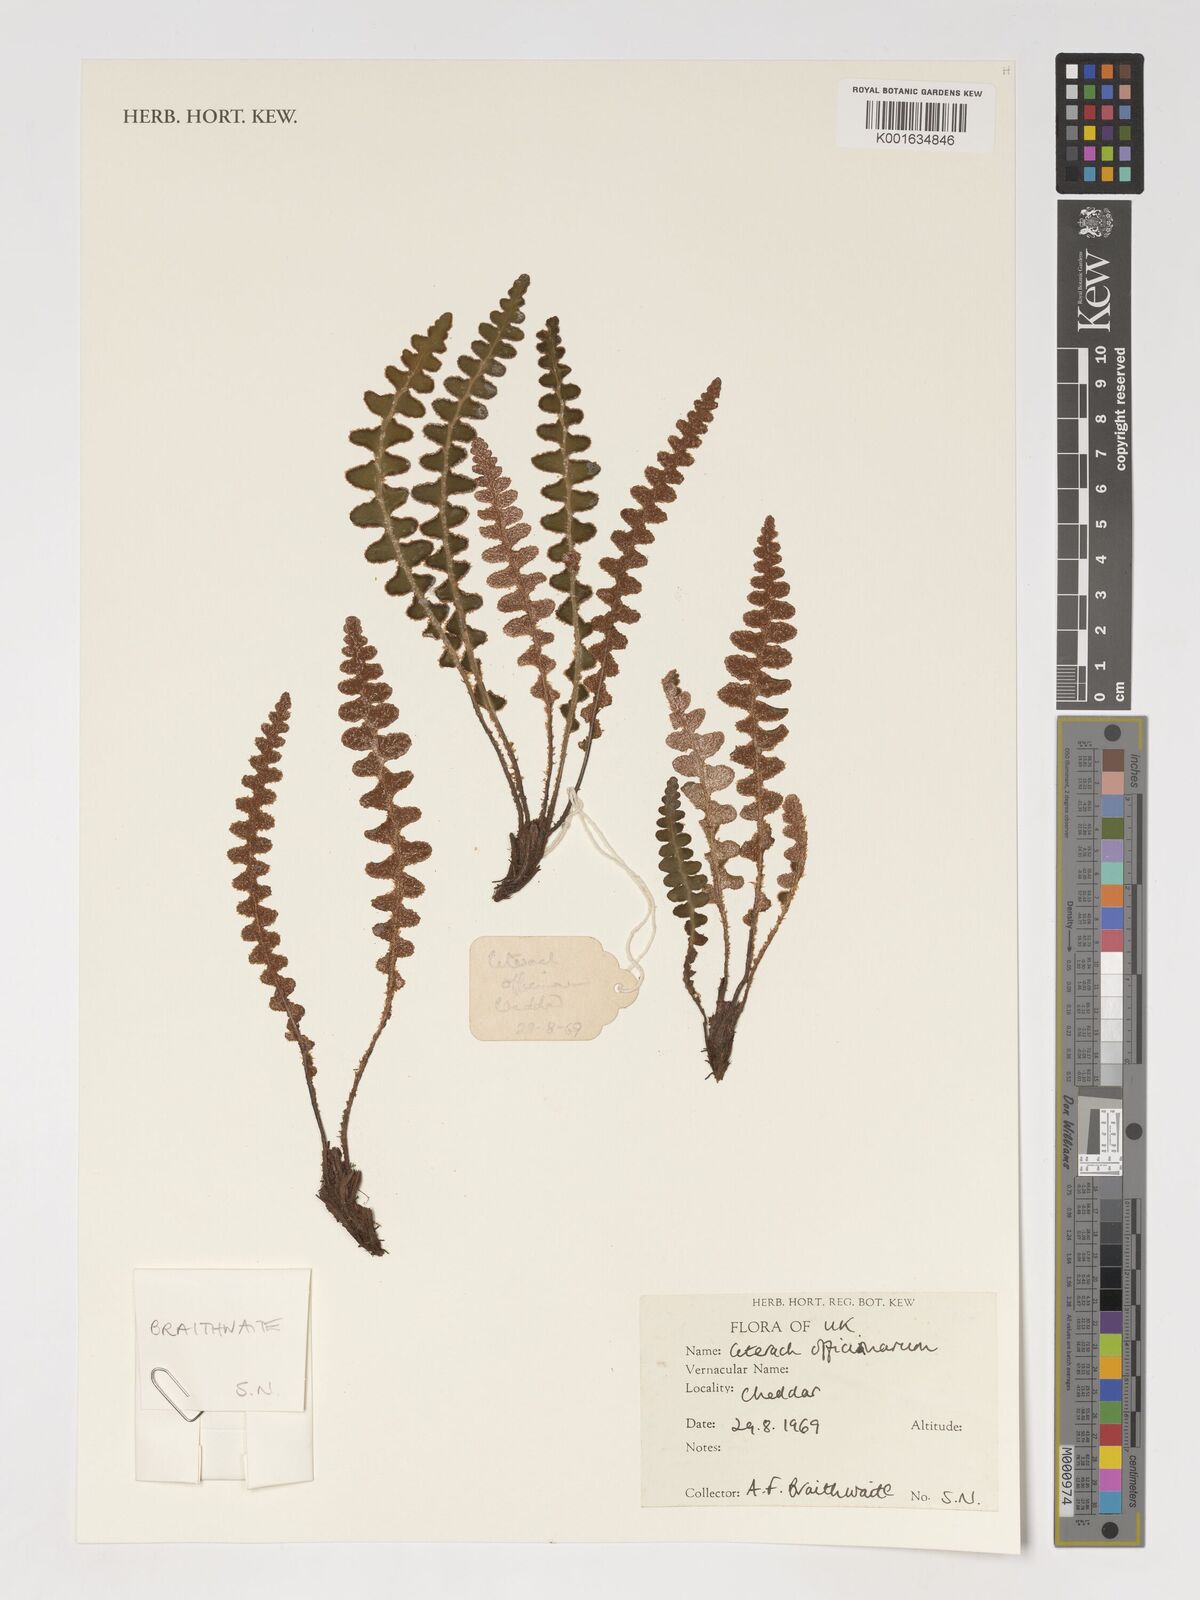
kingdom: Plantae
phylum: Tracheophyta
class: Polypodiopsida
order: Polypodiales
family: Aspleniaceae
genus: Asplenium
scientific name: Asplenium ceterach
